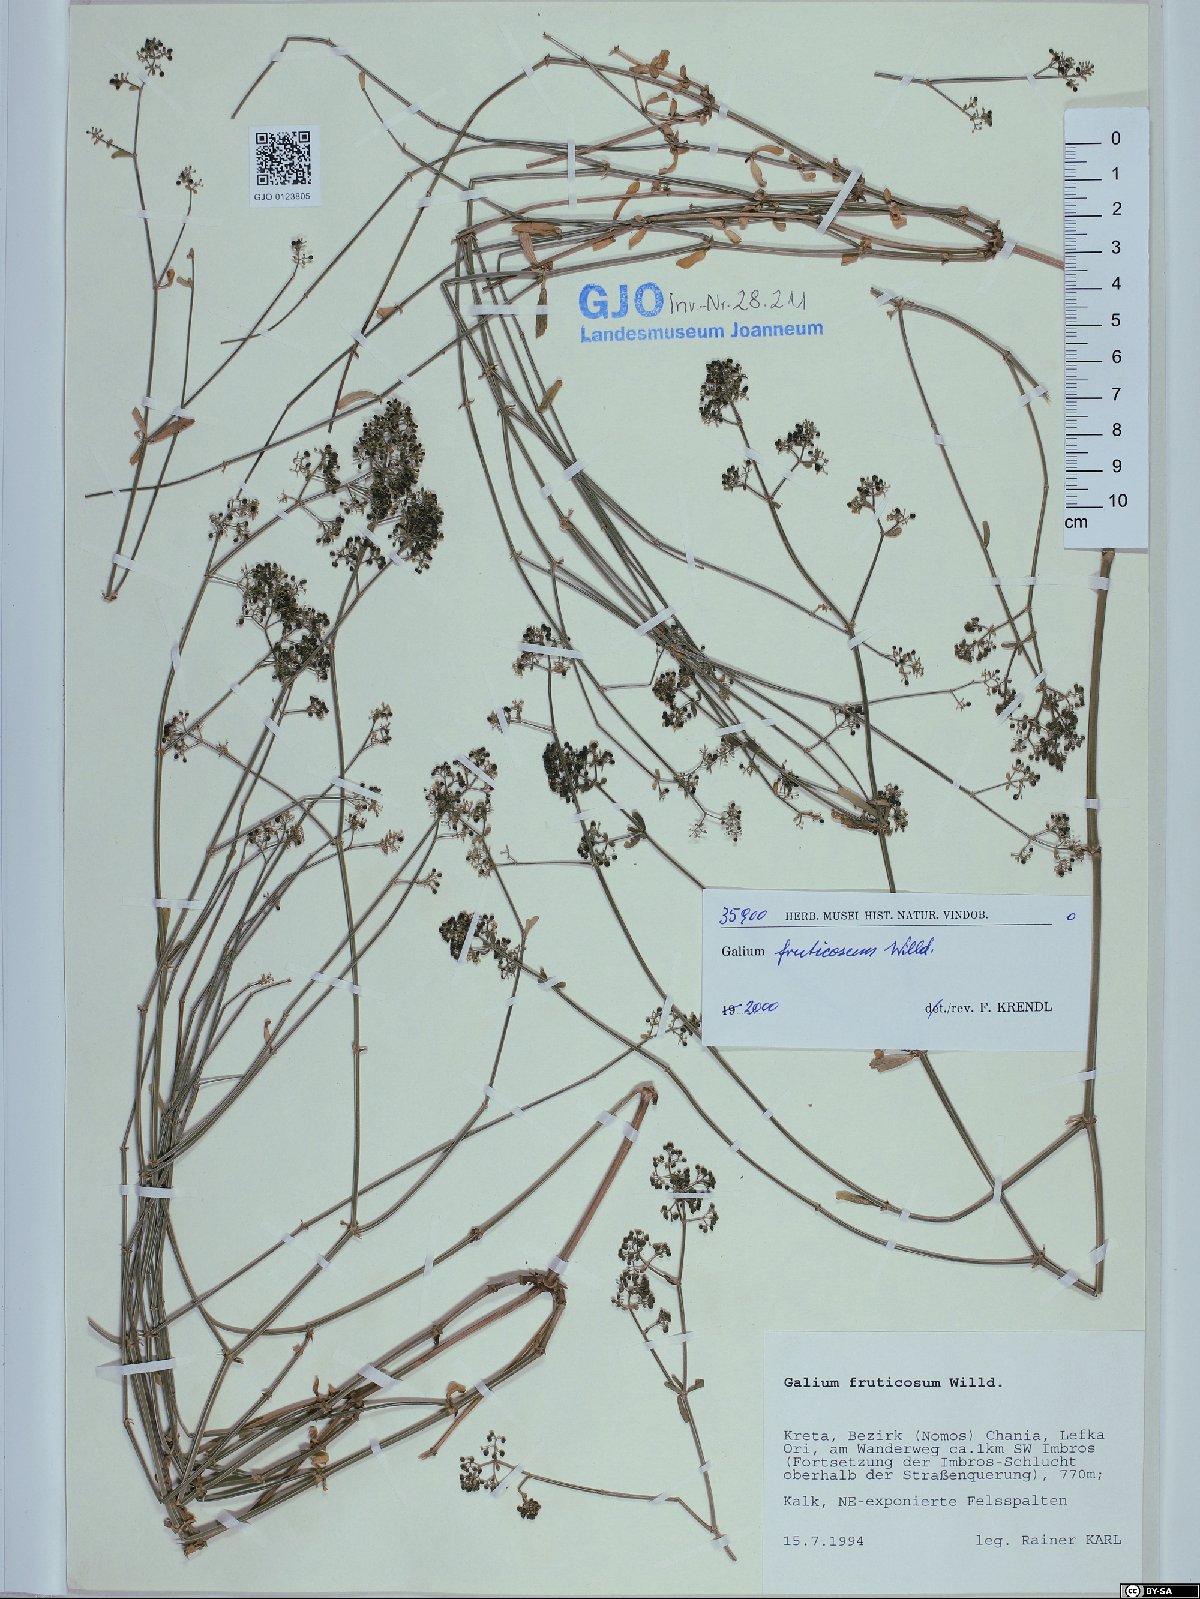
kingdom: Plantae
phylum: Tracheophyta
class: Magnoliopsida
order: Gentianales
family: Rubiaceae
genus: Galium
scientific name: Galium fruticosum
